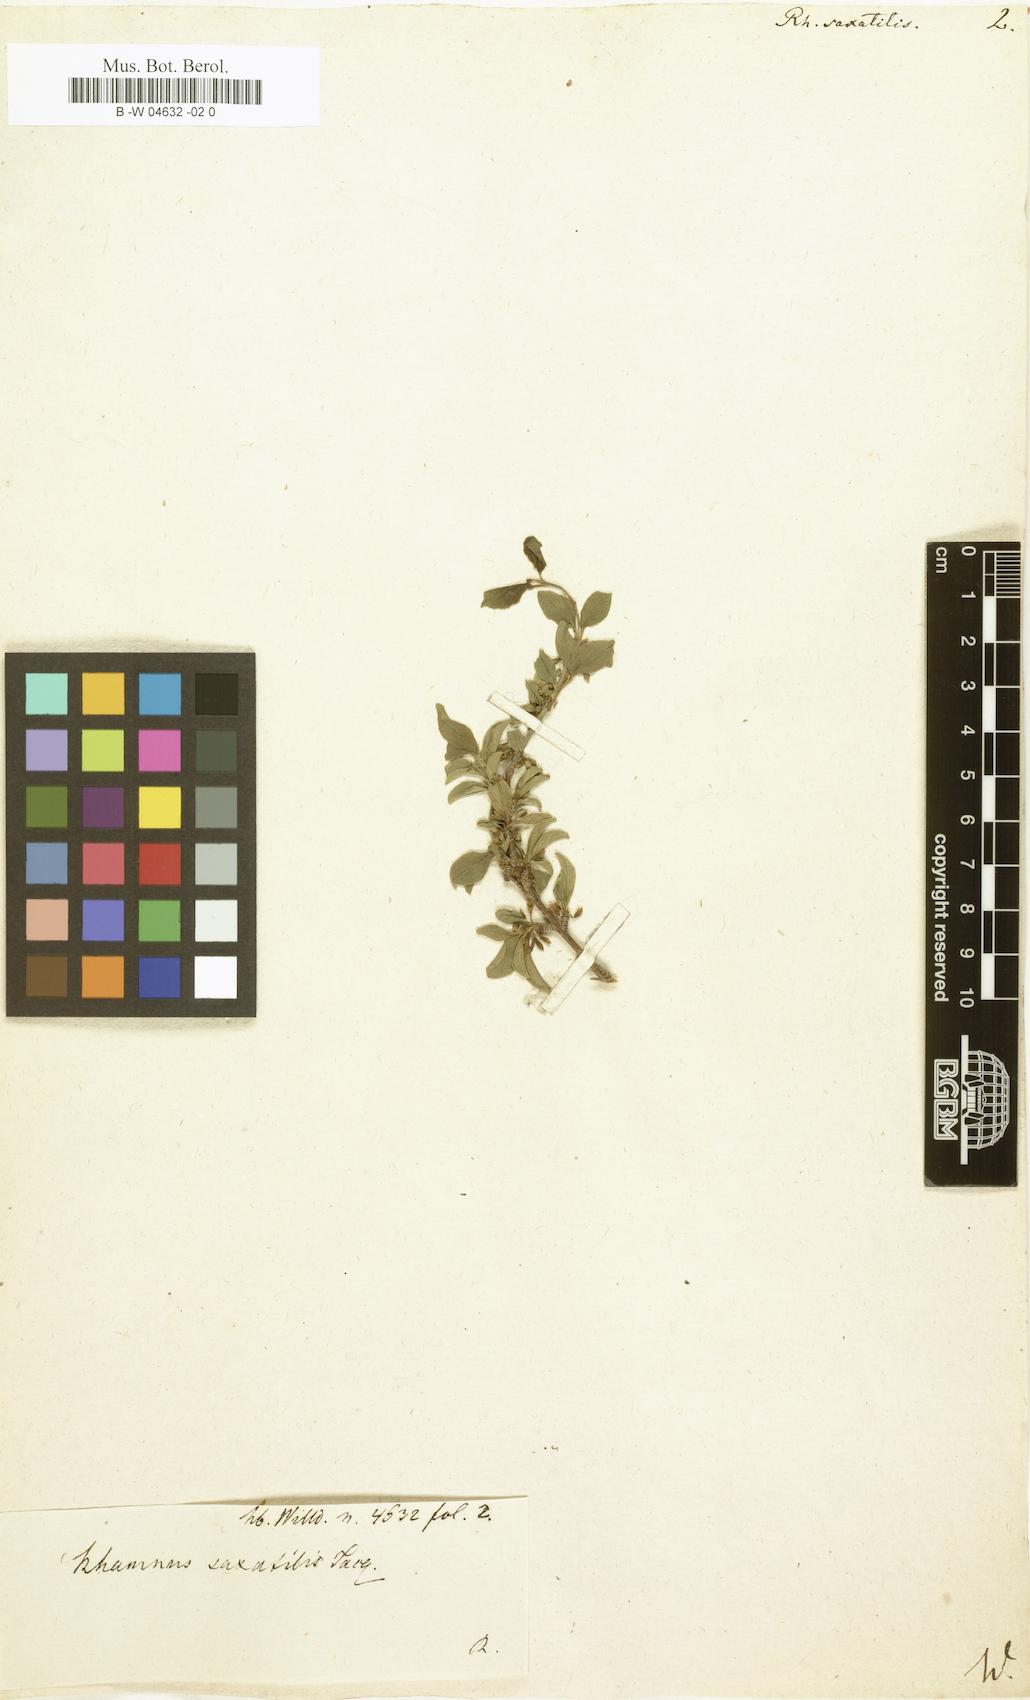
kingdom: Plantae
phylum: Tracheophyta
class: Magnoliopsida
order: Rosales
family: Rhamnaceae
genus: Rhamnus
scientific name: Rhamnus saxatilis
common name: Rock buckthorn
